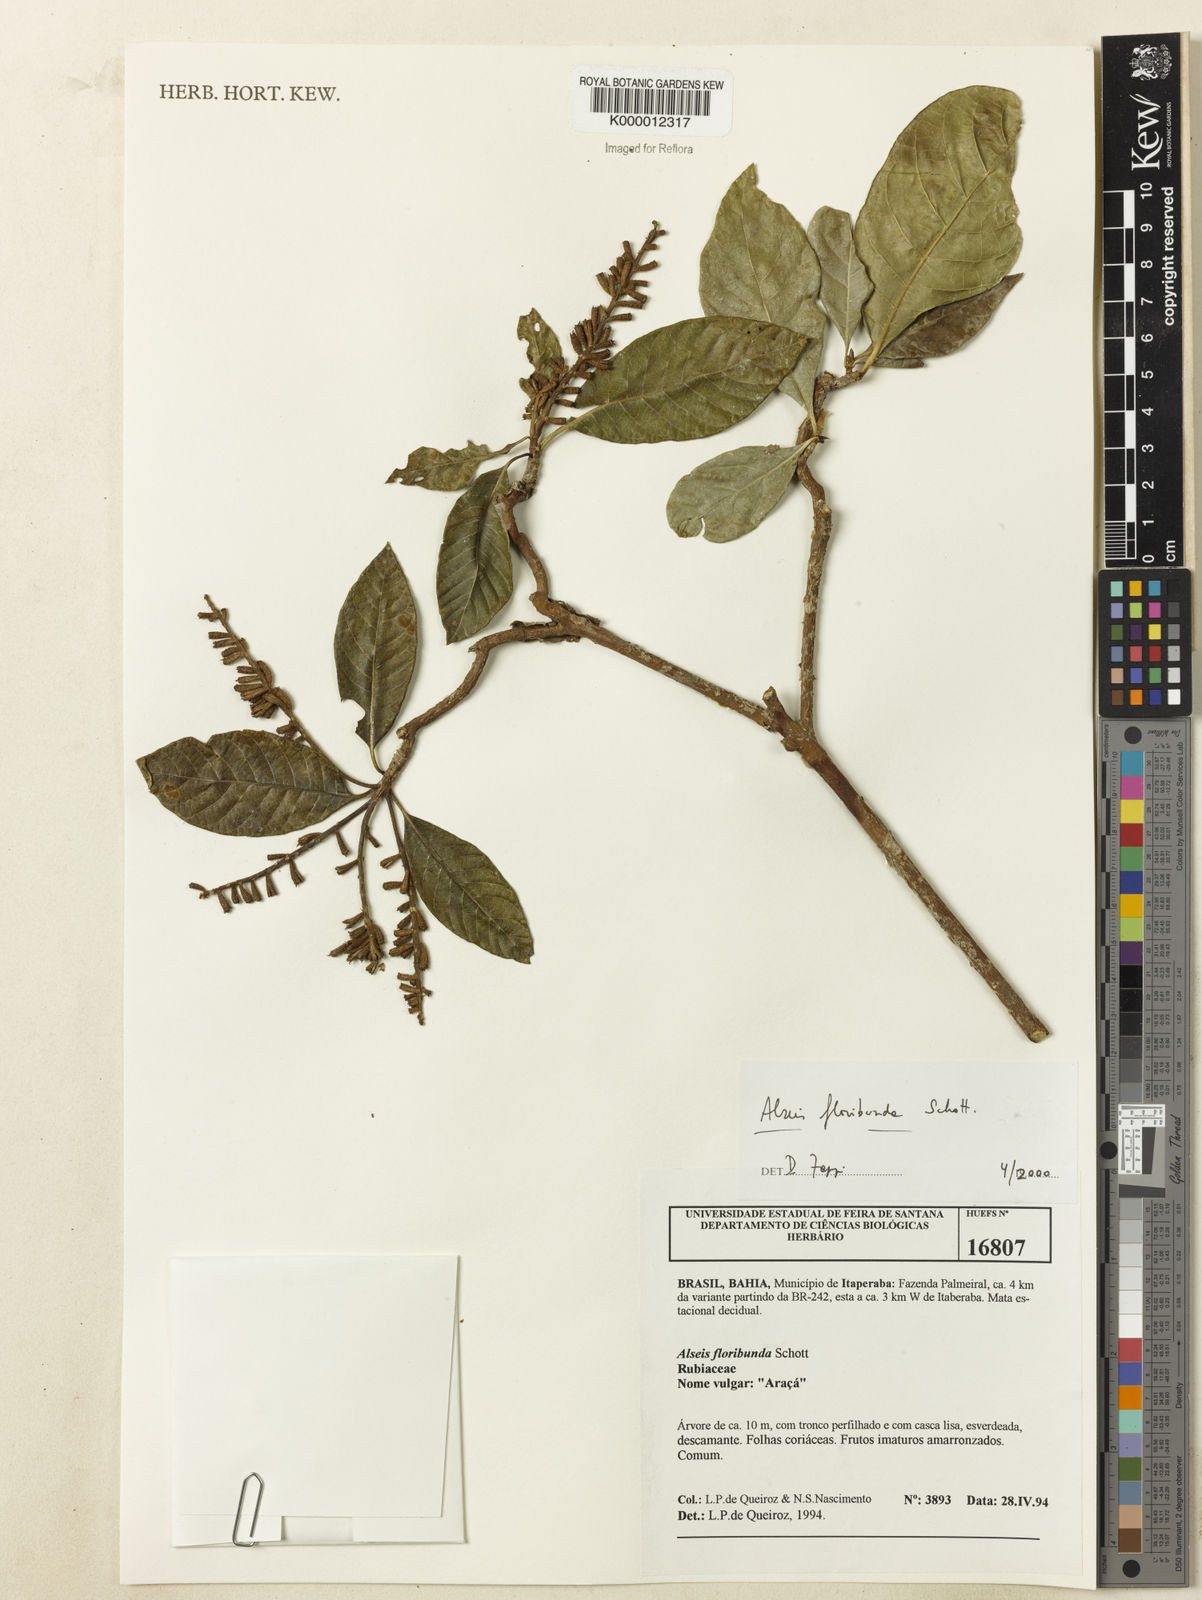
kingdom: Plantae
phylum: Tracheophyta
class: Magnoliopsida
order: Gentianales
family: Rubiaceae
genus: Alseis
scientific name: Alseis floribunda
